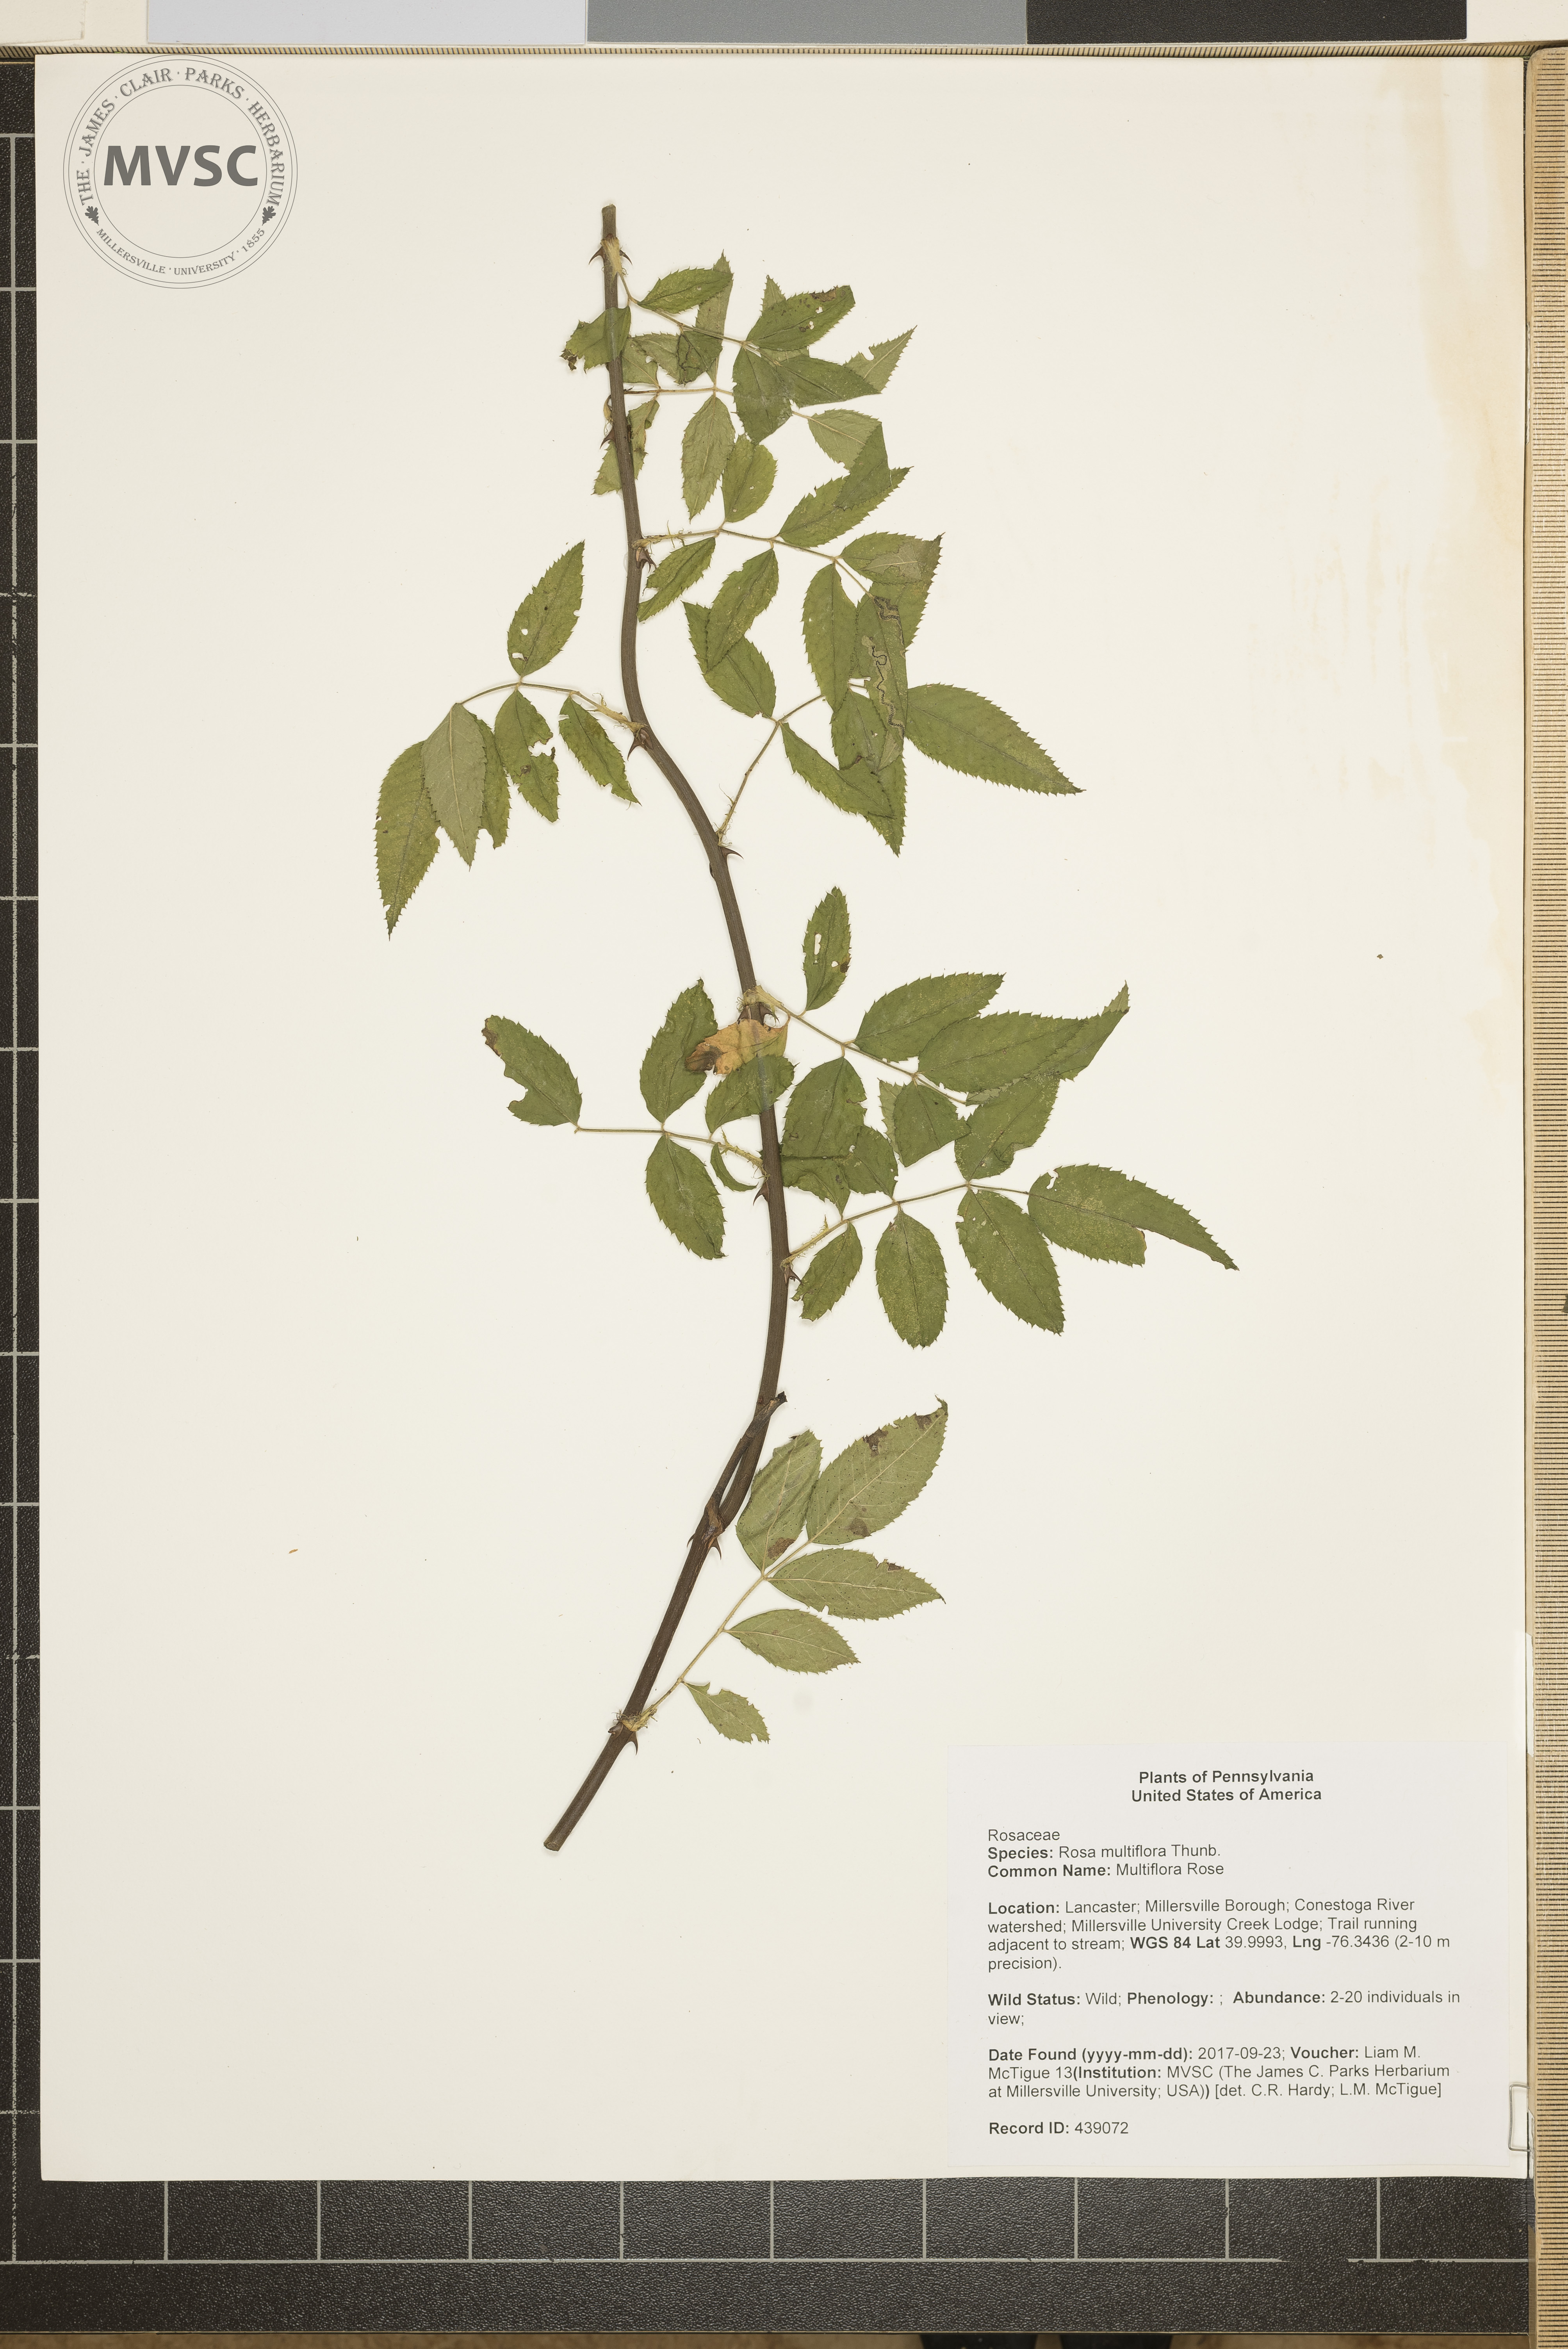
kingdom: Plantae
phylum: Tracheophyta
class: Magnoliopsida
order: Rosales
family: Rosaceae
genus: Rosa
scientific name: Rosa multiflora
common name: Multiflora Rose
